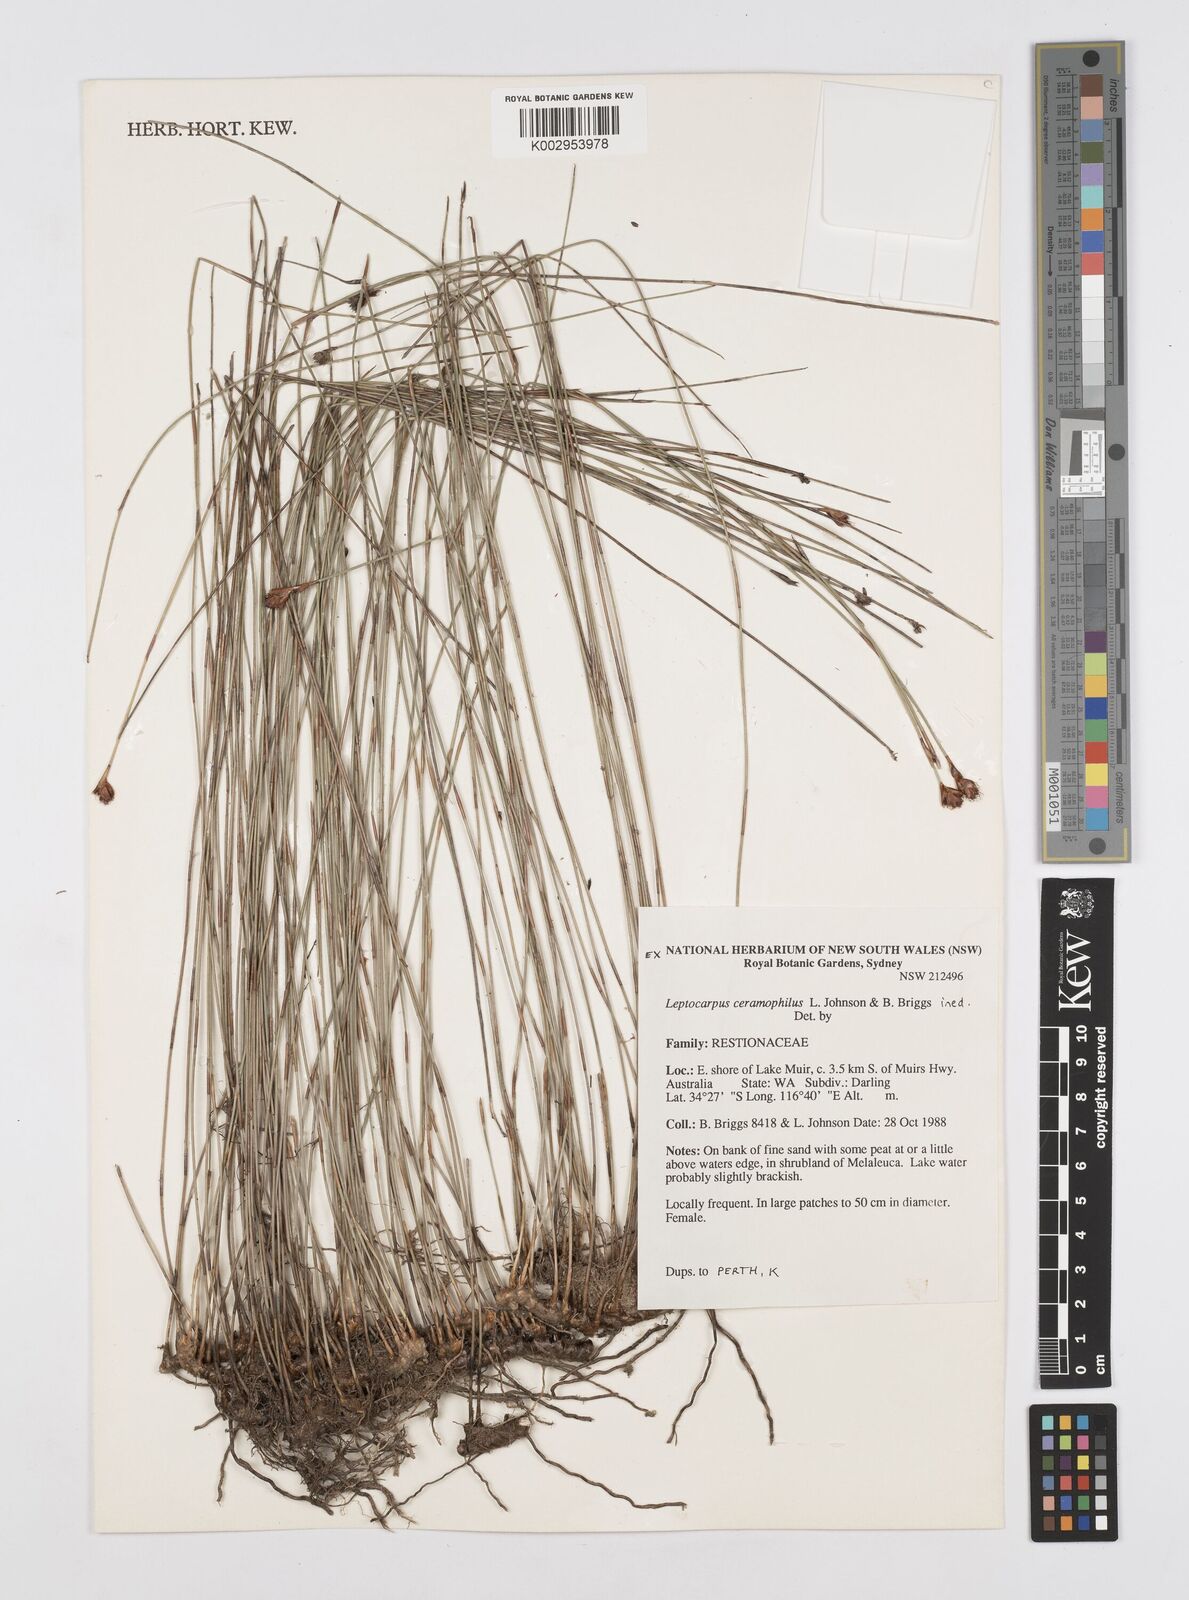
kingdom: Plantae
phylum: Tracheophyta
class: Liliopsida
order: Poales
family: Restionaceae
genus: Apodasmia
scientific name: Apodasmia ceramophila
